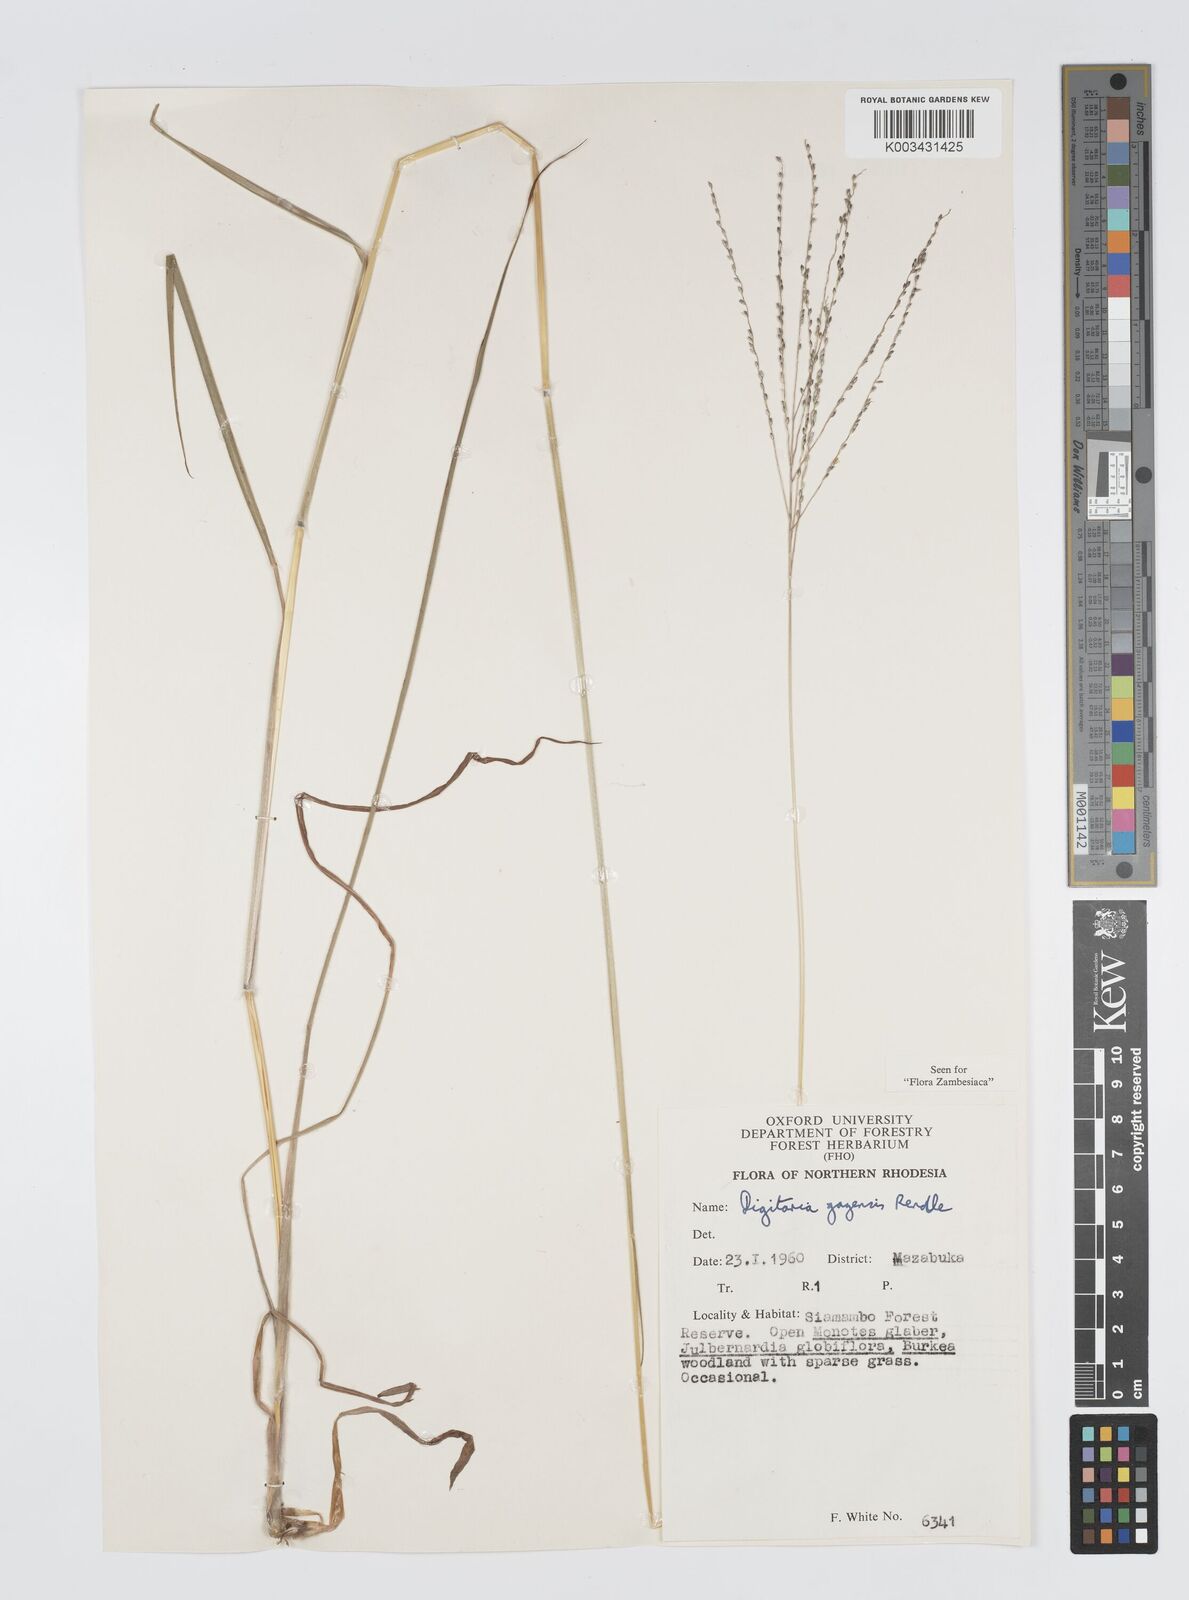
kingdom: Plantae
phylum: Tracheophyta
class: Liliopsida
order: Poales
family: Poaceae
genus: Digitaria
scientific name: Digitaria gazensis
